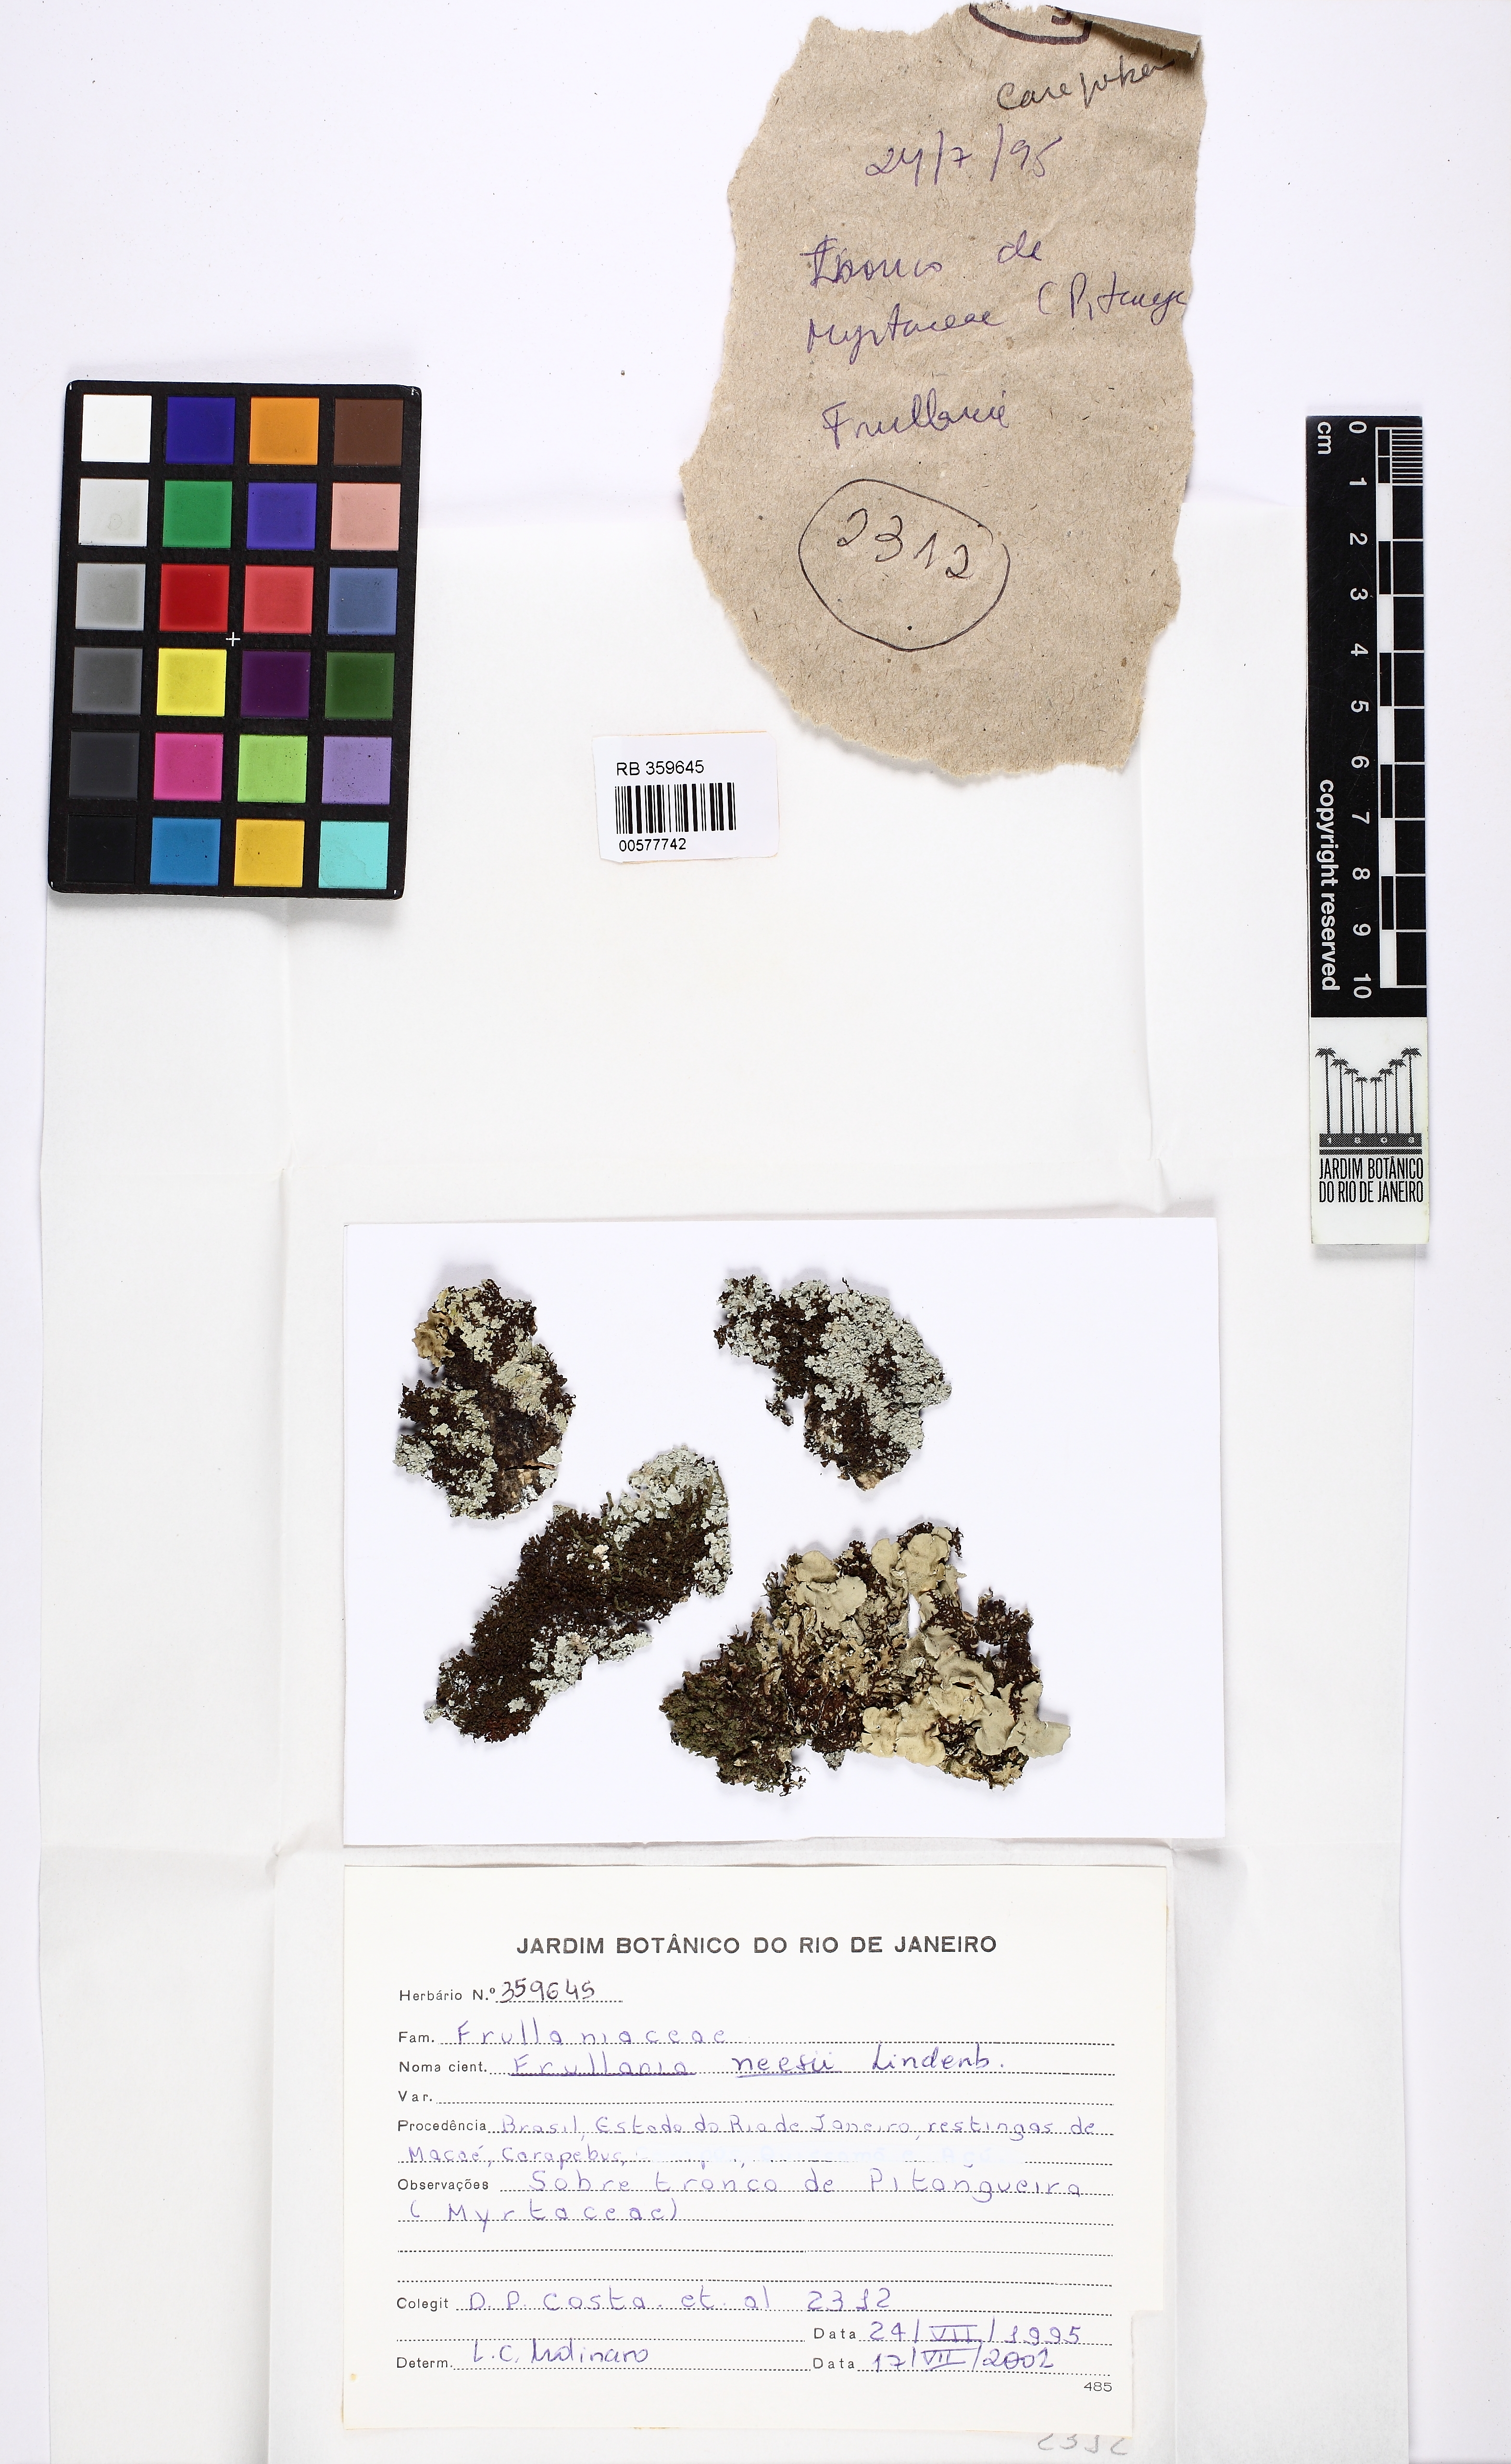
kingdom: Plantae
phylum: Marchantiophyta
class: Jungermanniopsida
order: Porellales
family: Frullaniaceae
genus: Frullania
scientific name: Frullania kunzei
